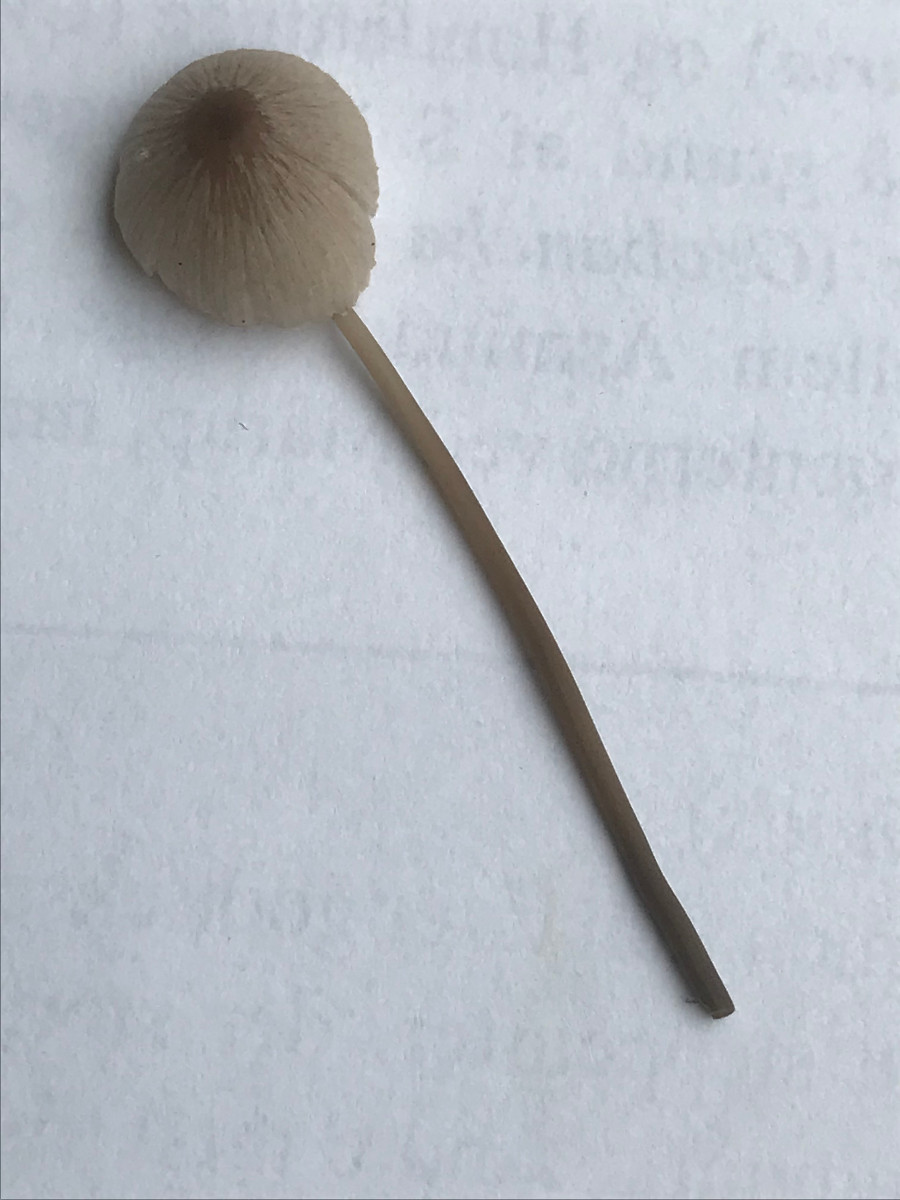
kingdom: Fungi
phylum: Basidiomycota
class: Agaricomycetes
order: Agaricales
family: Mycenaceae
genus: Mycena
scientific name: Mycena
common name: huesvamp
